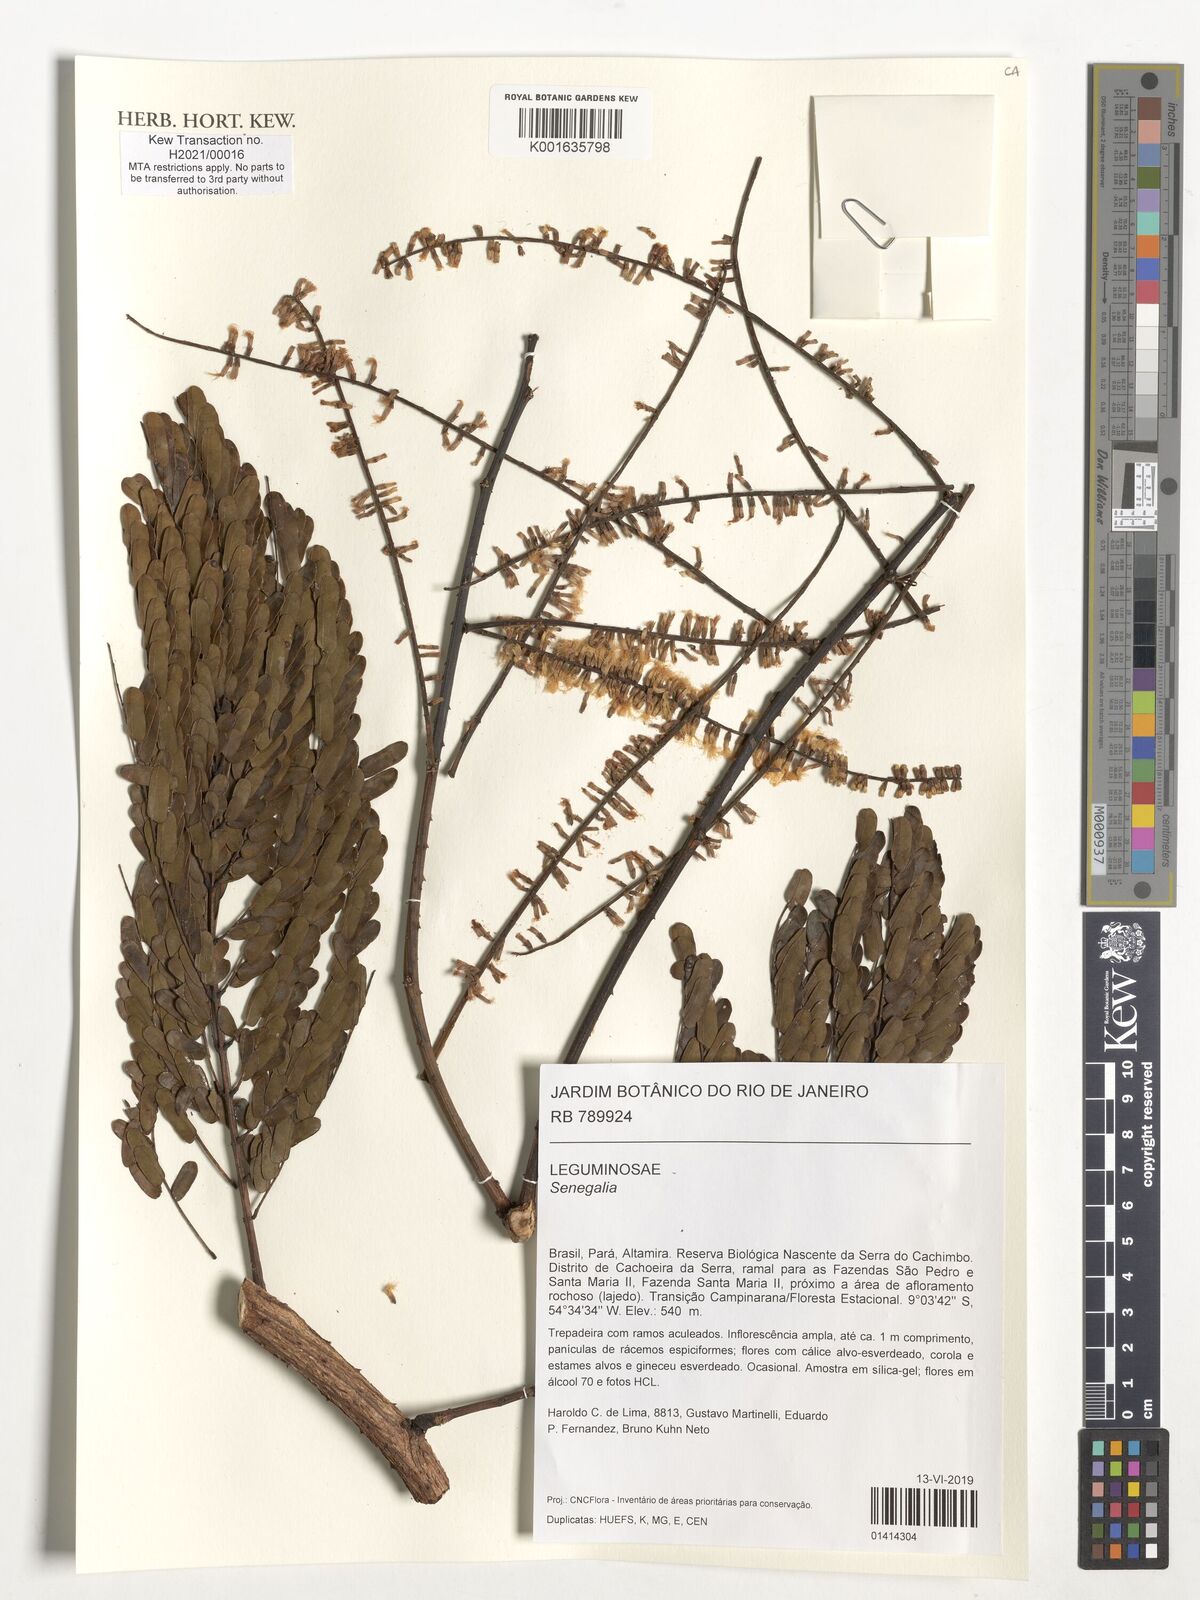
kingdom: Plantae
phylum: Tracheophyta
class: Magnoliopsida
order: Fabales
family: Fabaceae
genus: Senegalia
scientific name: Senegalia
